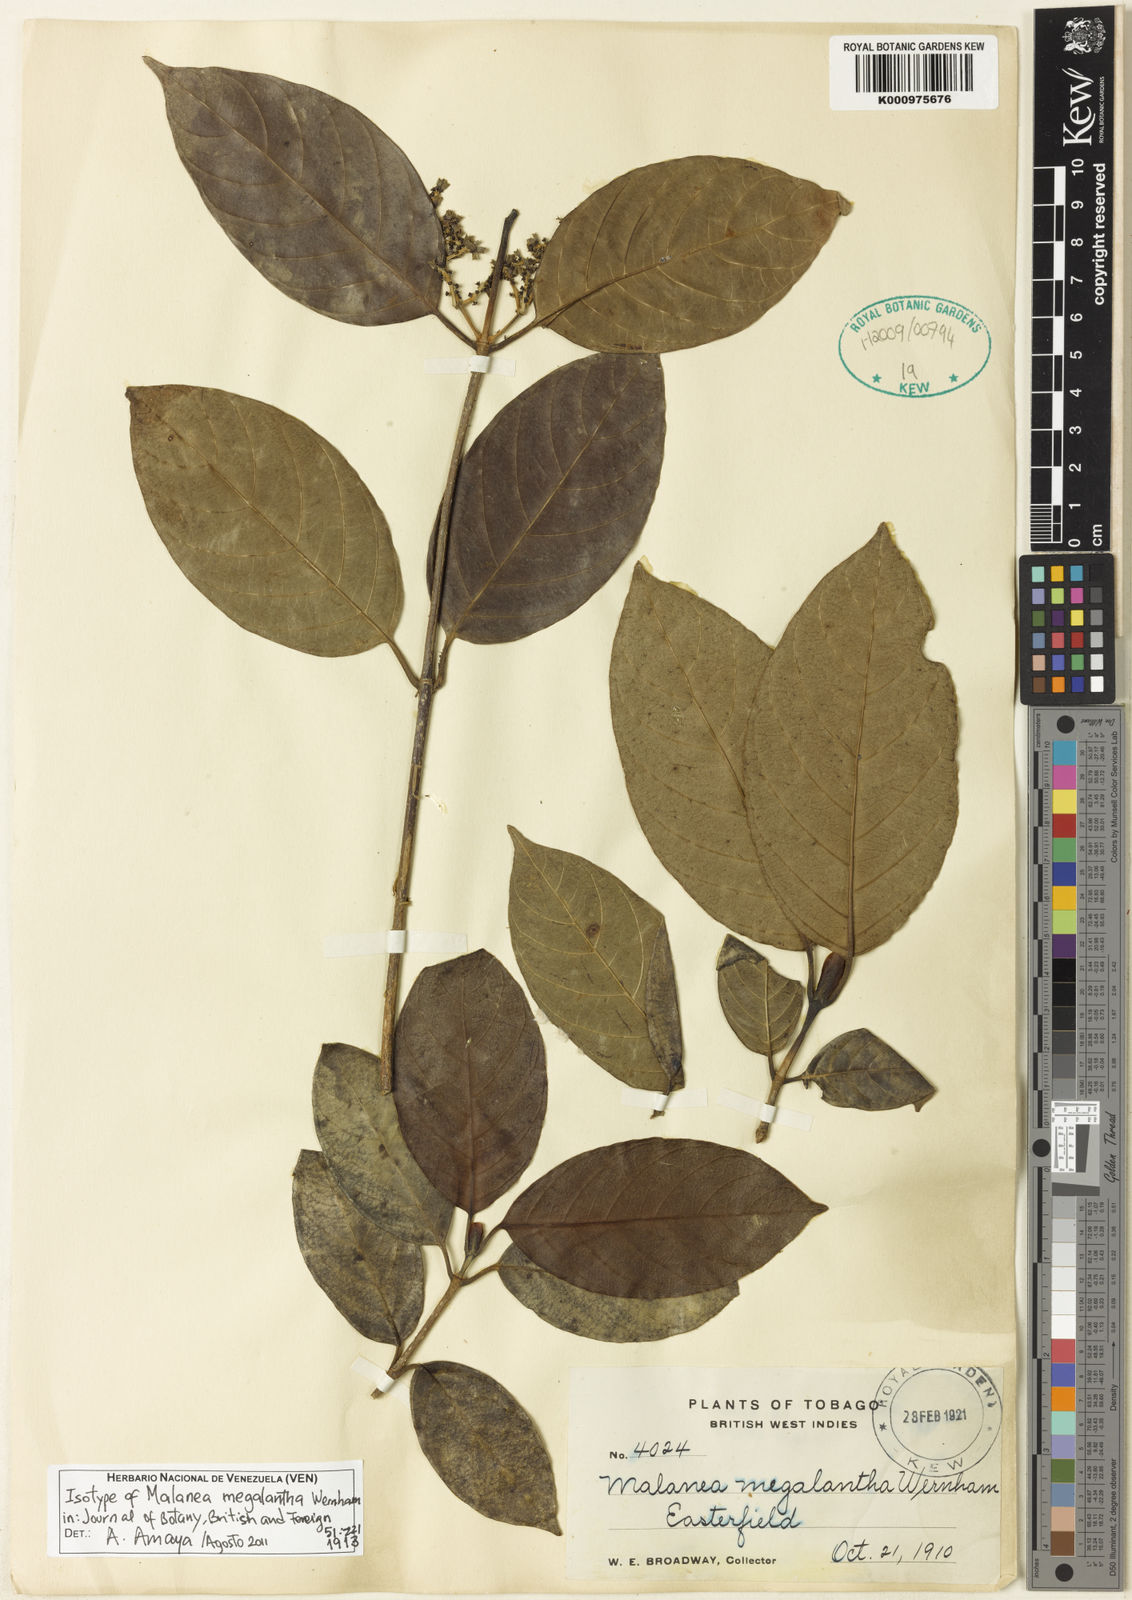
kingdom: Plantae
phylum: Tracheophyta
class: Magnoliopsida
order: Gentianales
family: Rubiaceae
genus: Malanea
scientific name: Malanea glabra
